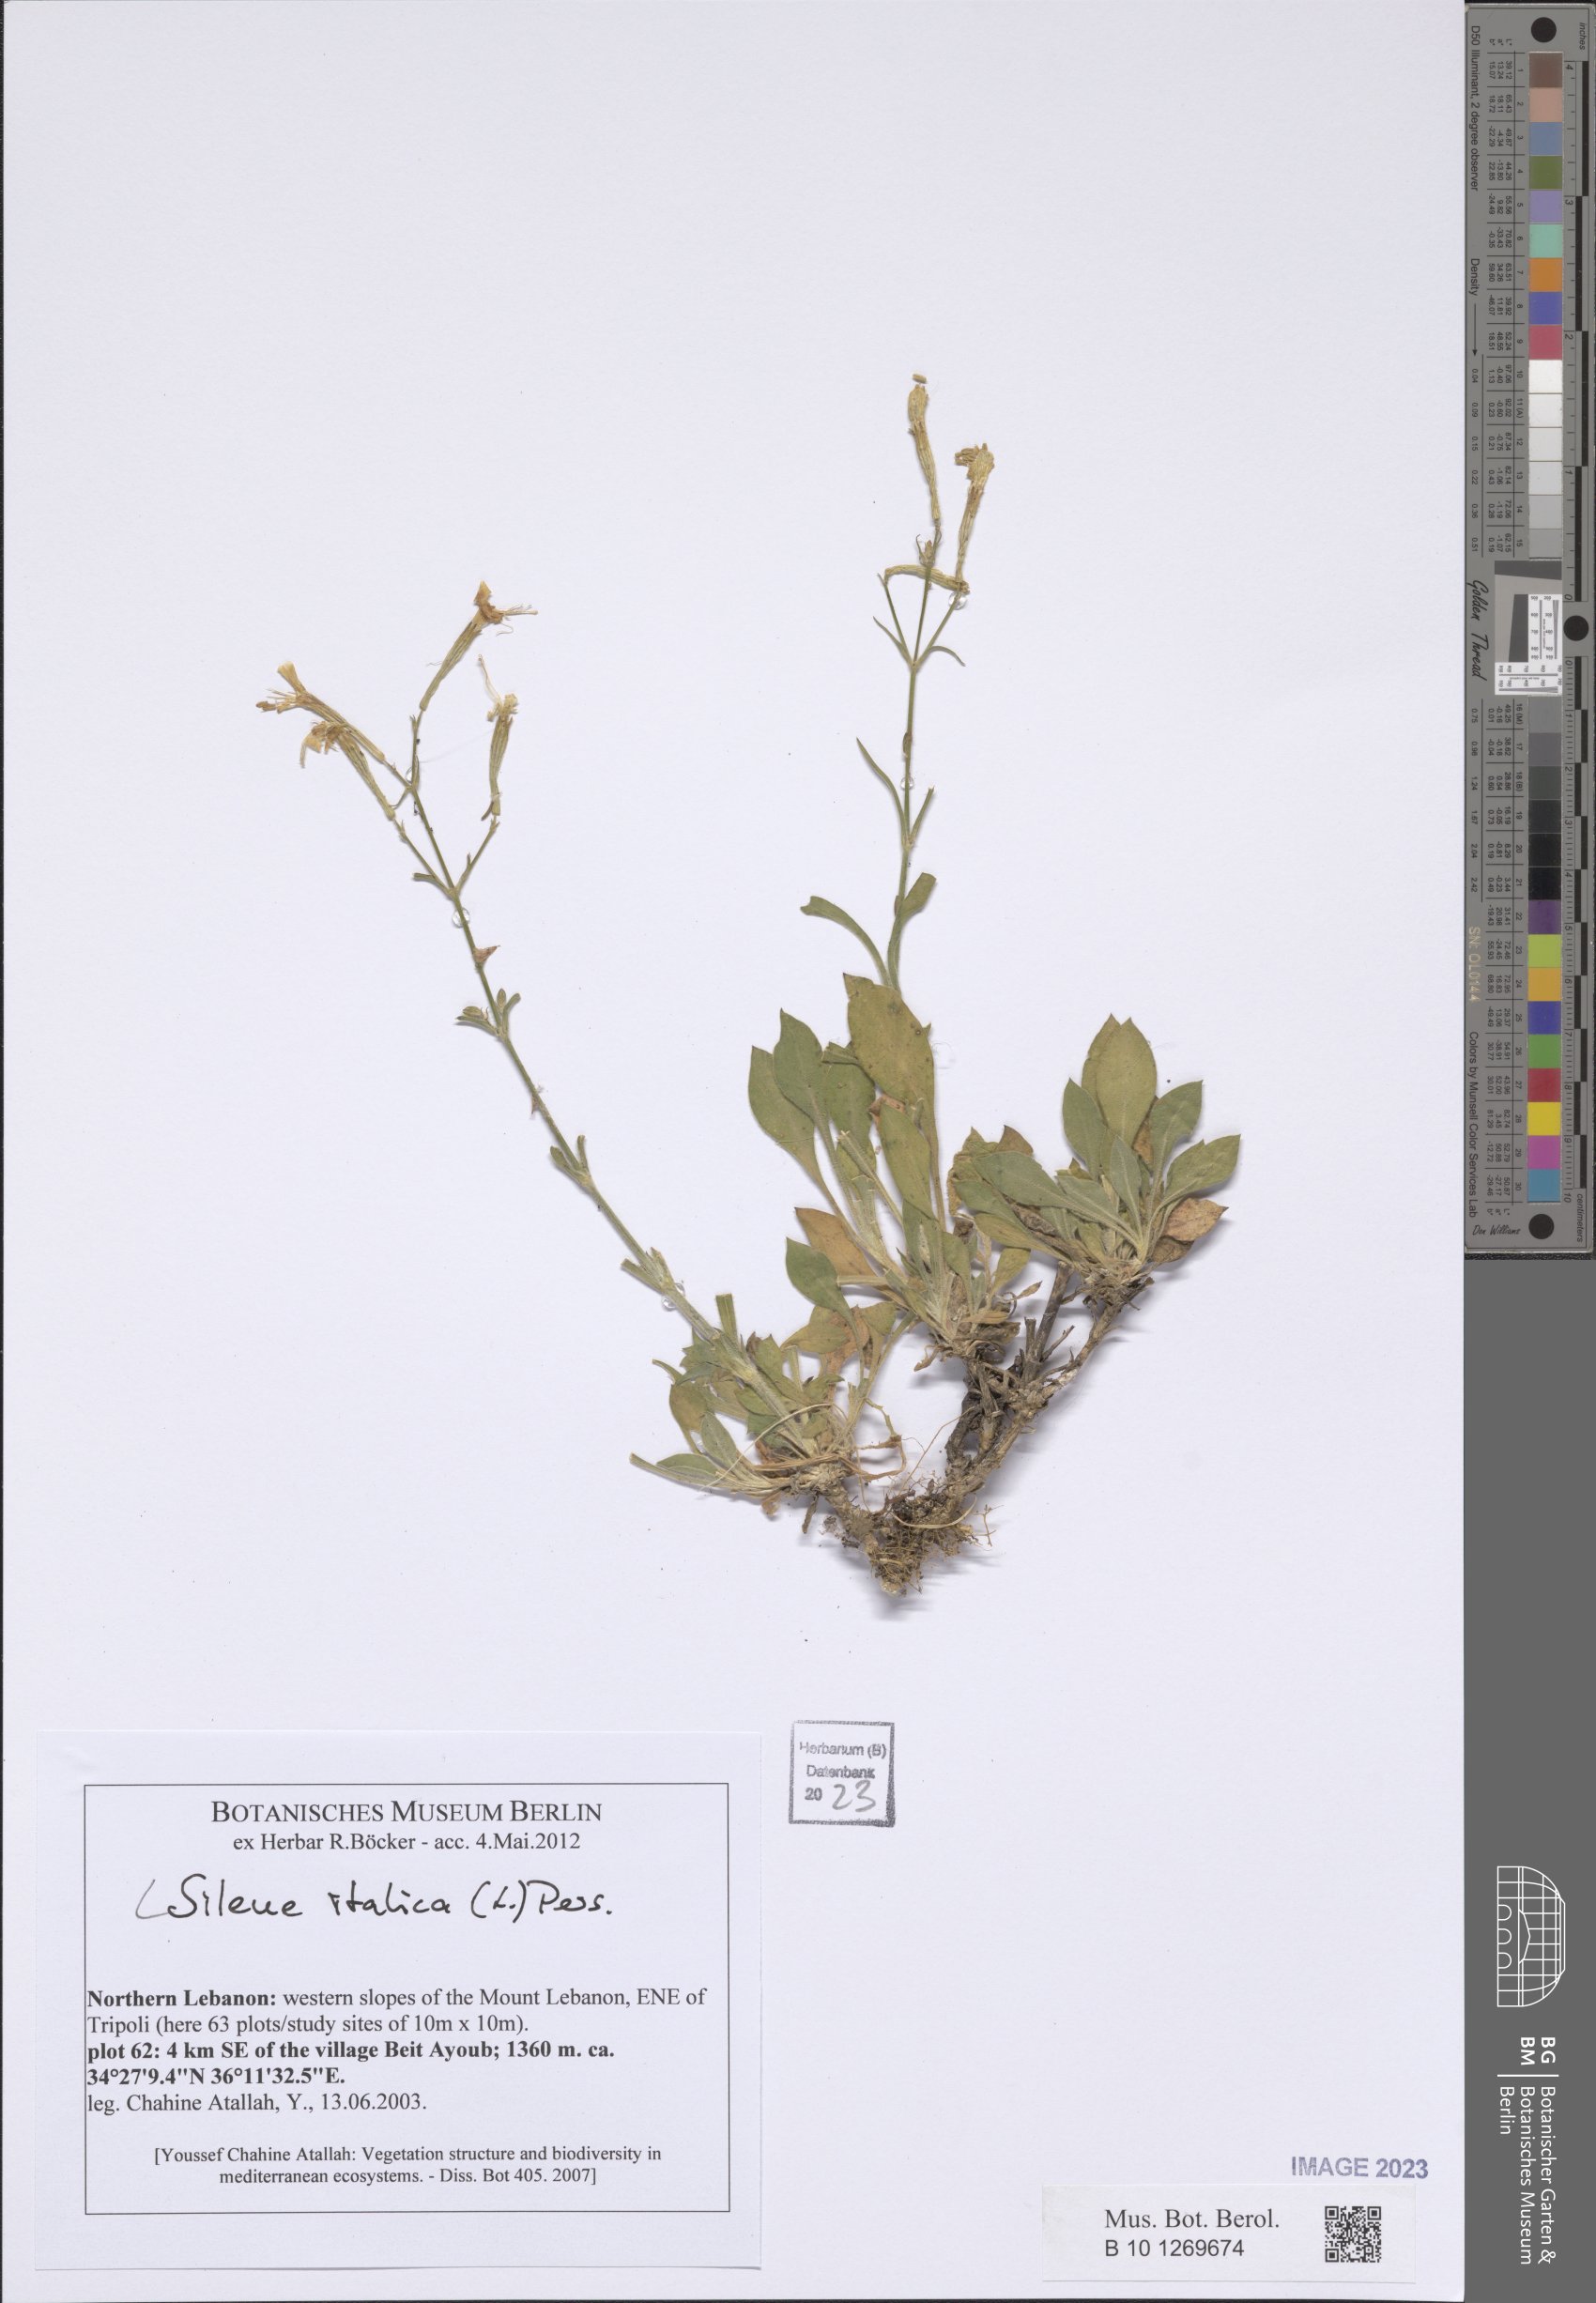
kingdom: Plantae
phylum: Tracheophyta
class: Magnoliopsida
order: Caryophyllales
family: Caryophyllaceae
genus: Silene
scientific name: Silene italica
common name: Italian catchfly
